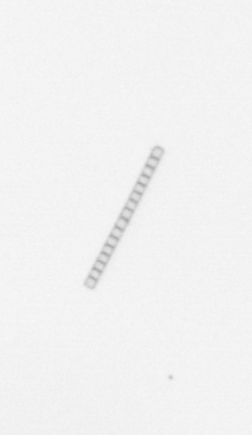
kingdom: Chromista
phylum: Ochrophyta
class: Bacillariophyceae
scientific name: Bacillariophyceae
